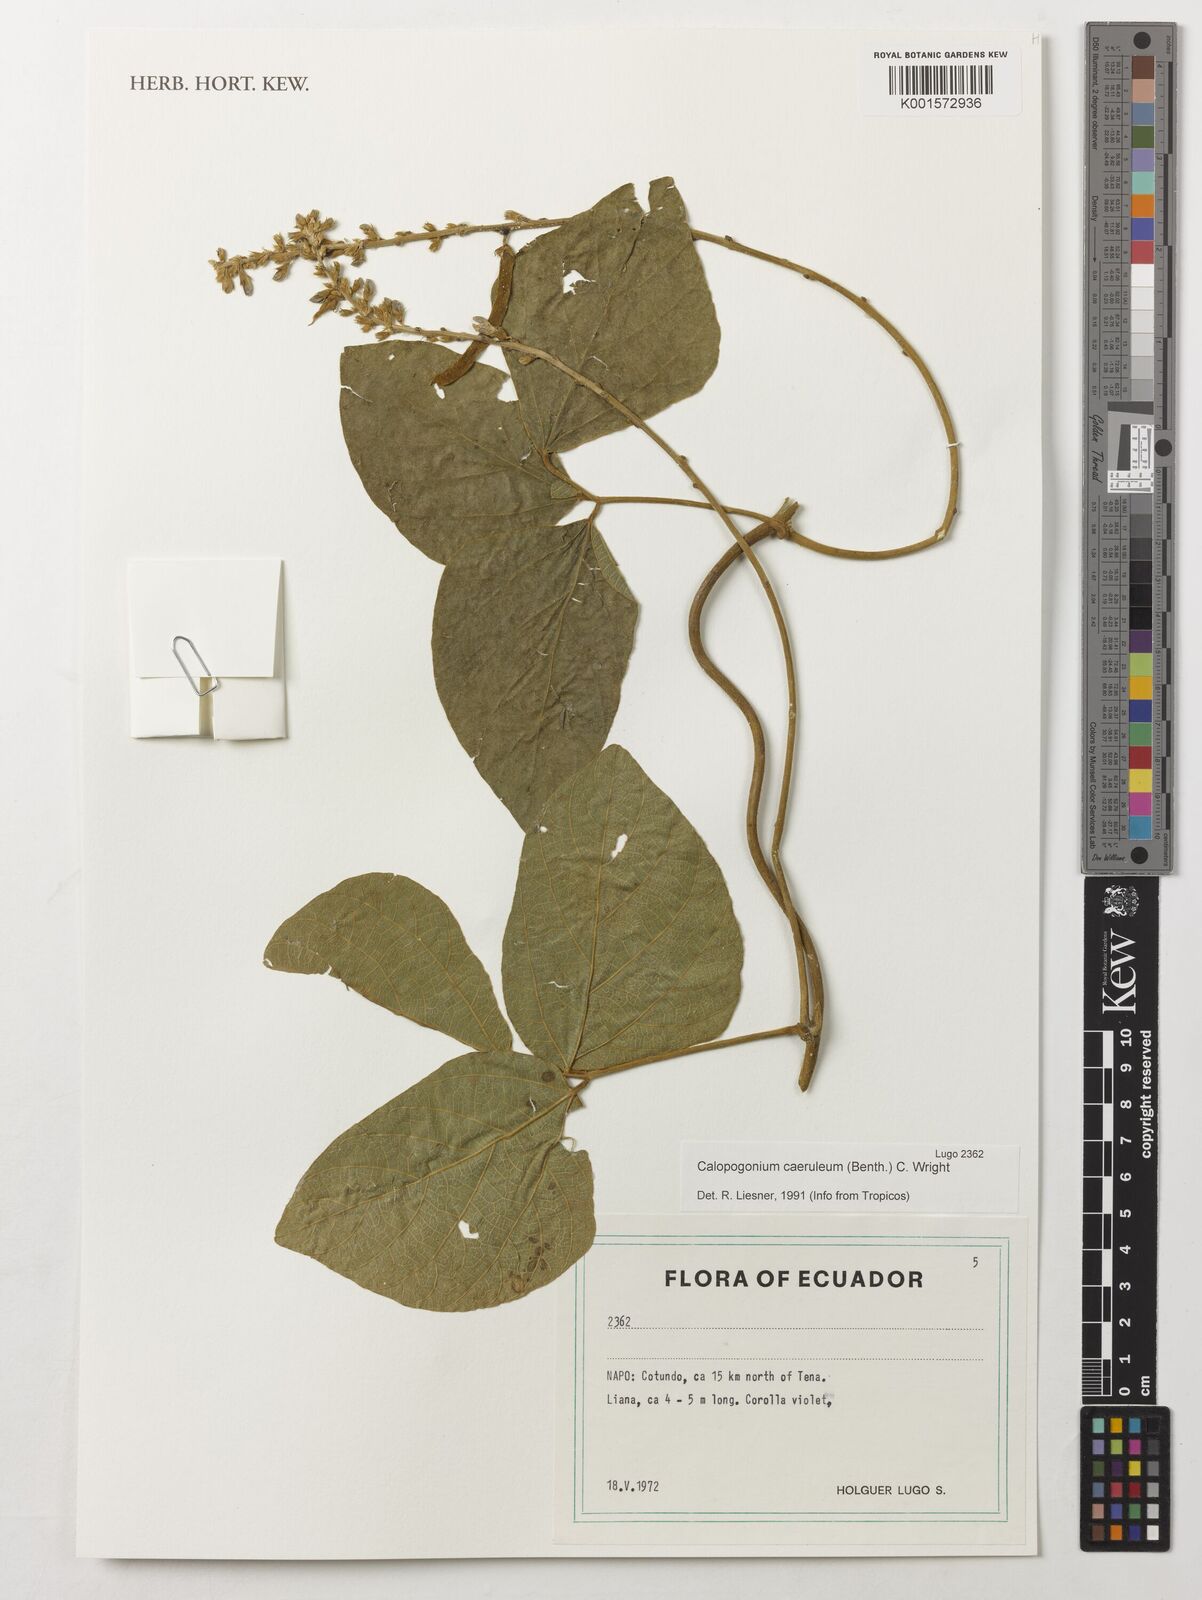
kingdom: Plantae
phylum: Tracheophyta
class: Magnoliopsida
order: Fabales
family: Fabaceae
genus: Calopogonium
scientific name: Calopogonium caeruleum
